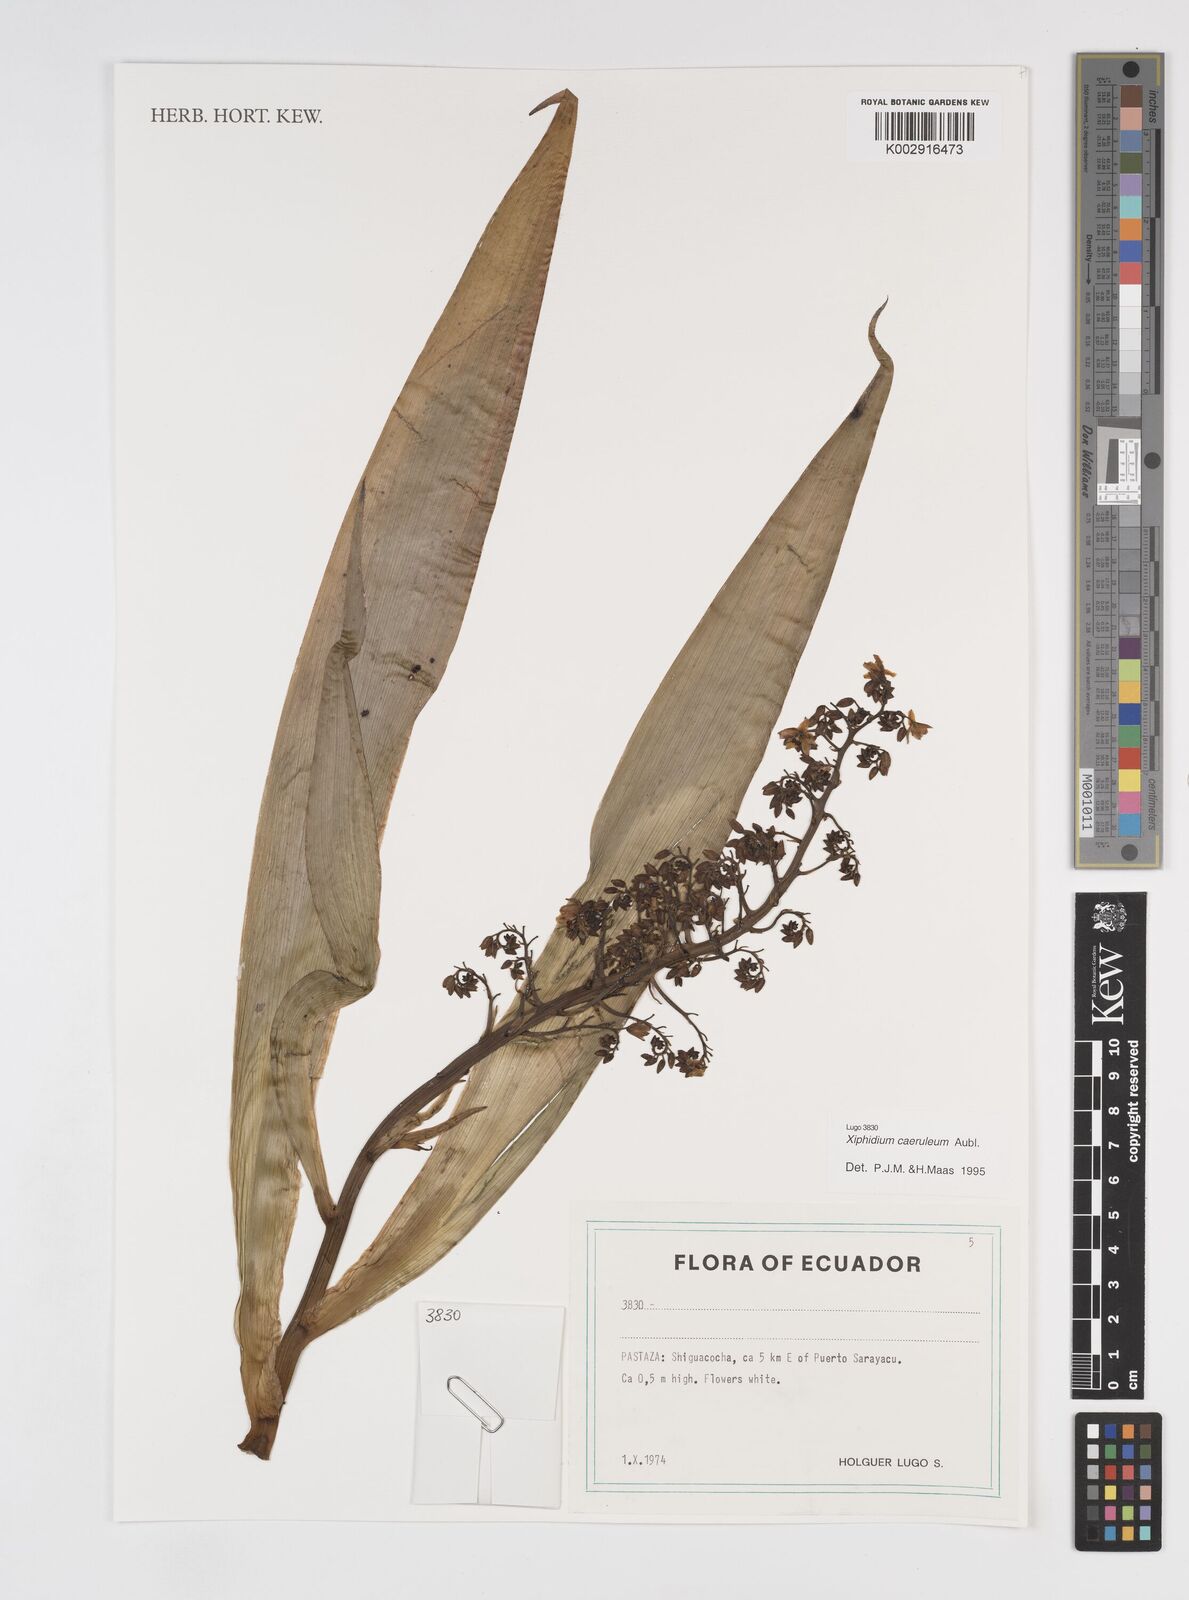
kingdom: Plantae
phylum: Tracheophyta
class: Liliopsida
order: Commelinales
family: Haemodoraceae
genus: Xiphidium
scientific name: Xiphidium caeruleum
